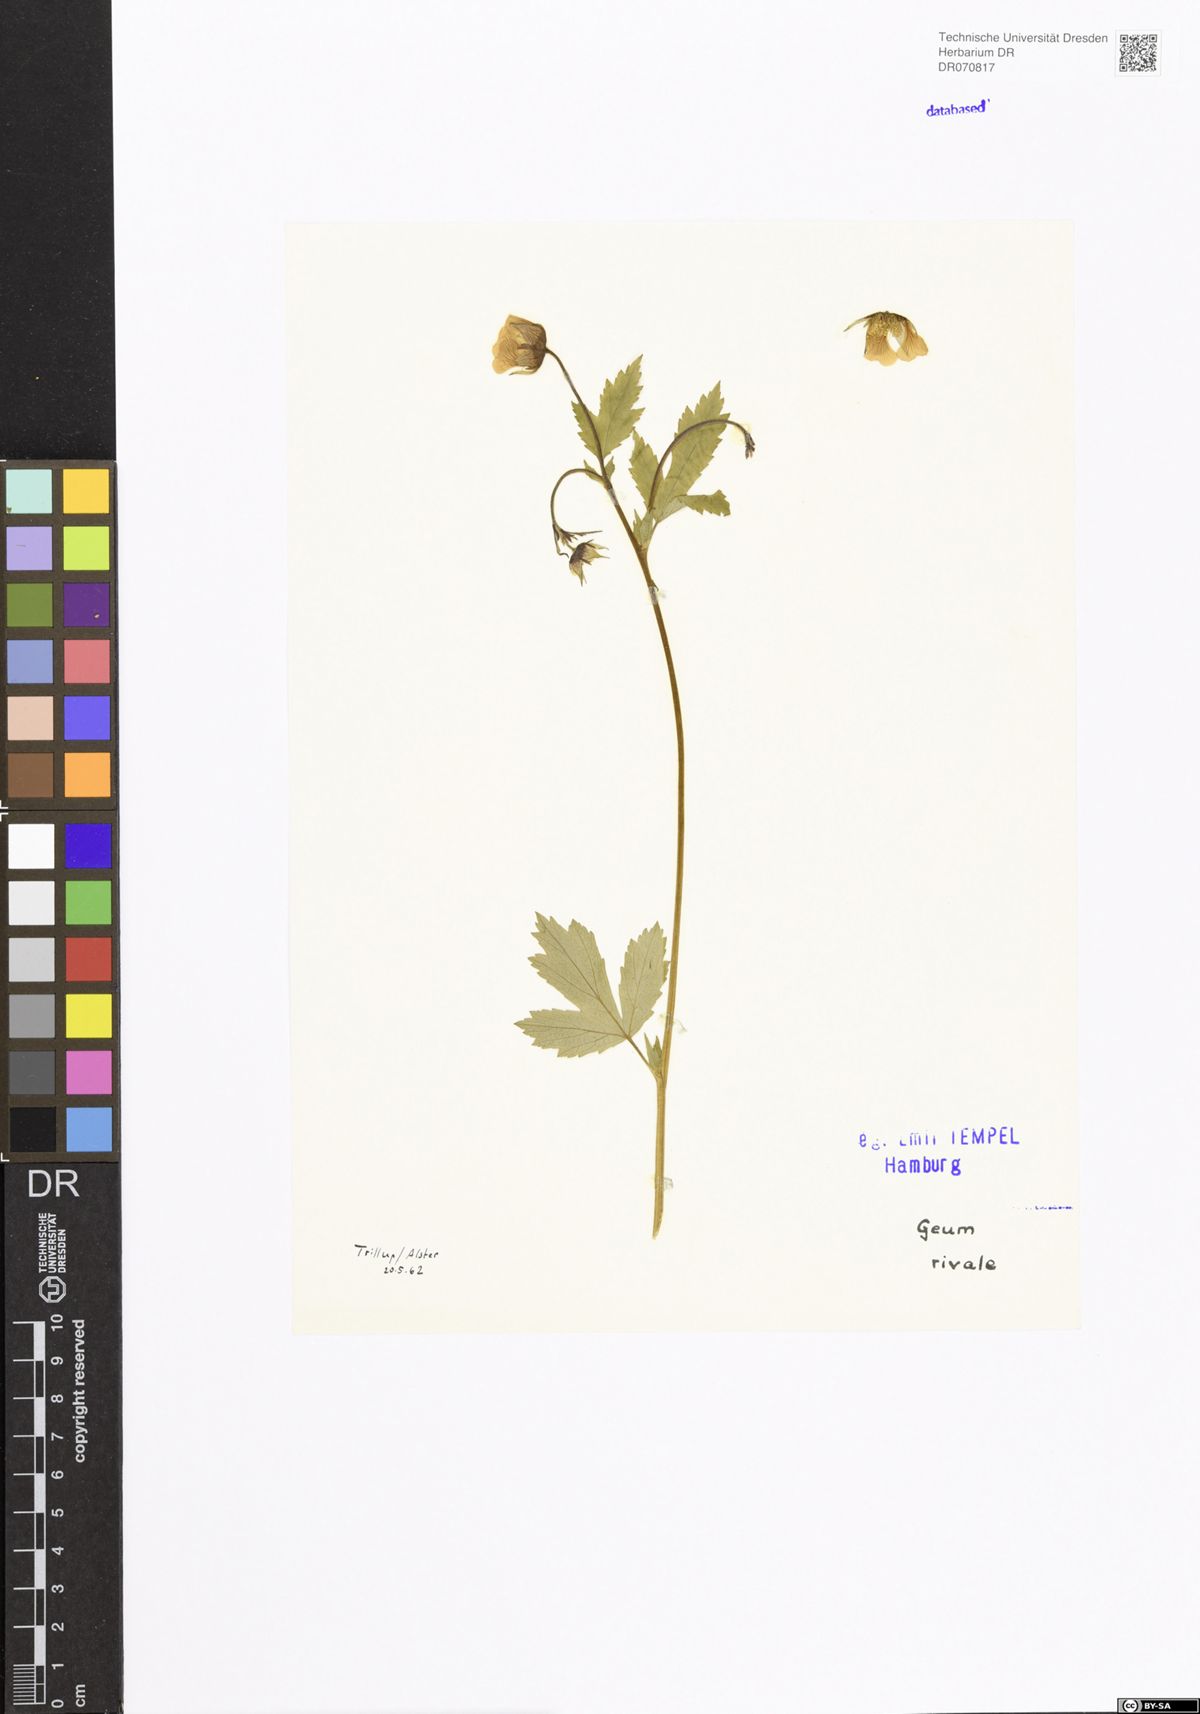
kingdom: Plantae
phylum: Tracheophyta
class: Magnoliopsida
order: Rosales
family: Rosaceae
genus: Geum
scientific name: Geum rivale
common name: Water avens
